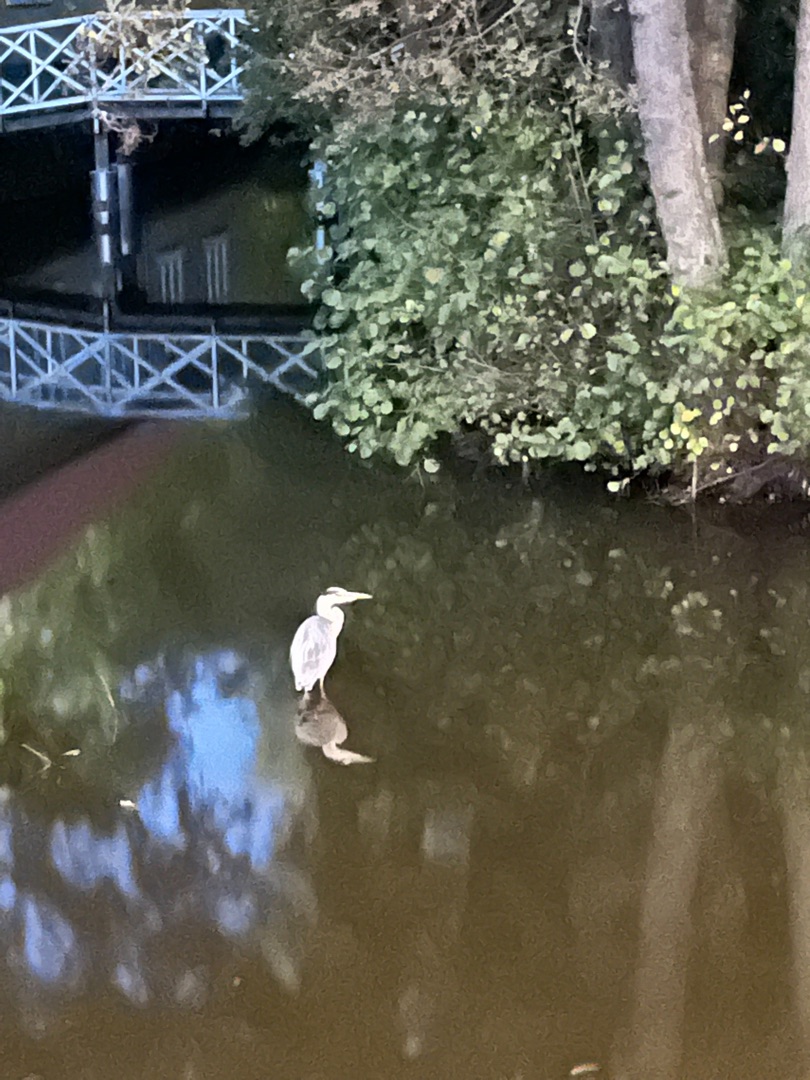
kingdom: Animalia
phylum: Chordata
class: Aves
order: Pelecaniformes
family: Ardeidae
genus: Ardea
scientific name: Ardea cinerea
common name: Fiskehejre
